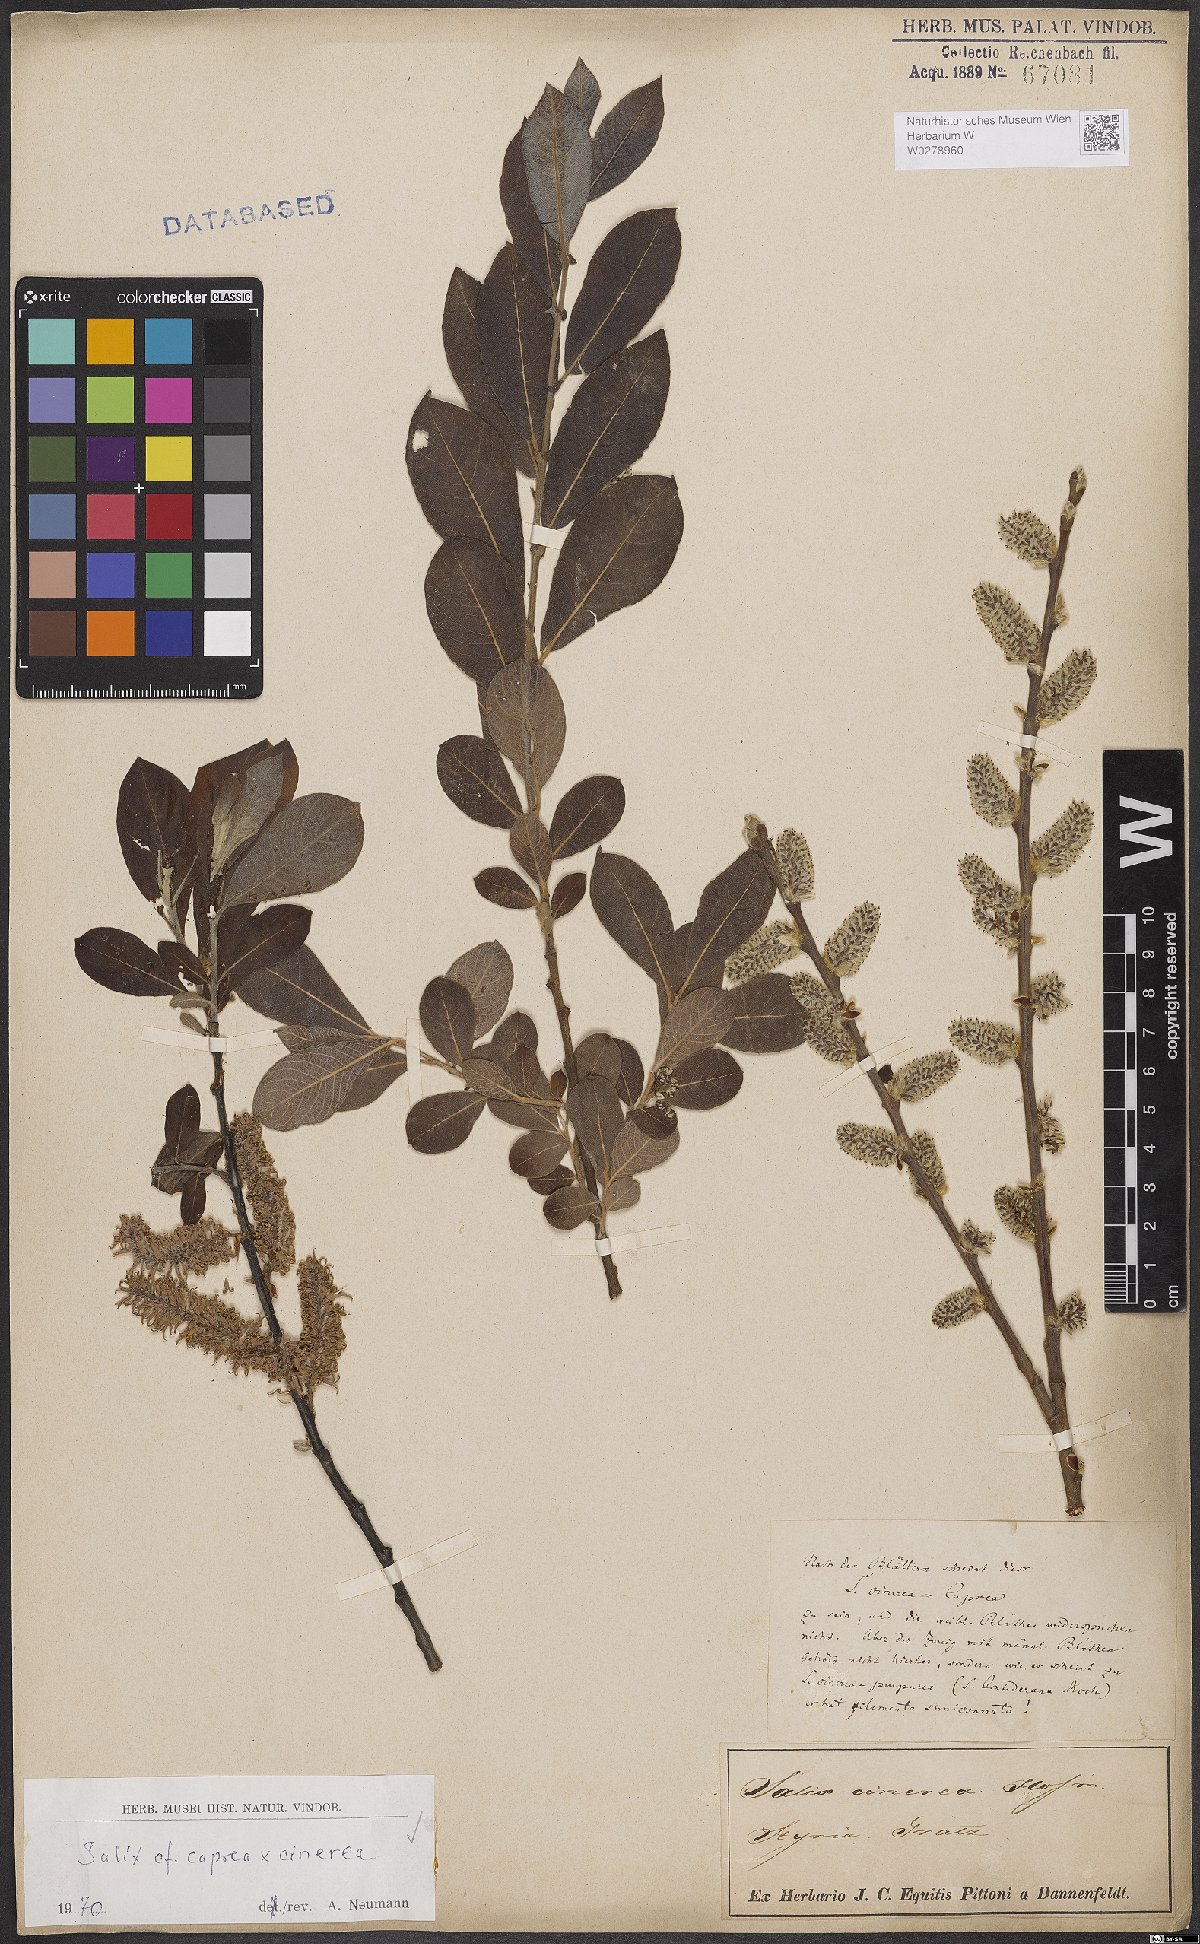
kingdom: Plantae
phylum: Tracheophyta
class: Magnoliopsida
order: Malpighiales
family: Salicaceae
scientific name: Salicaceae
